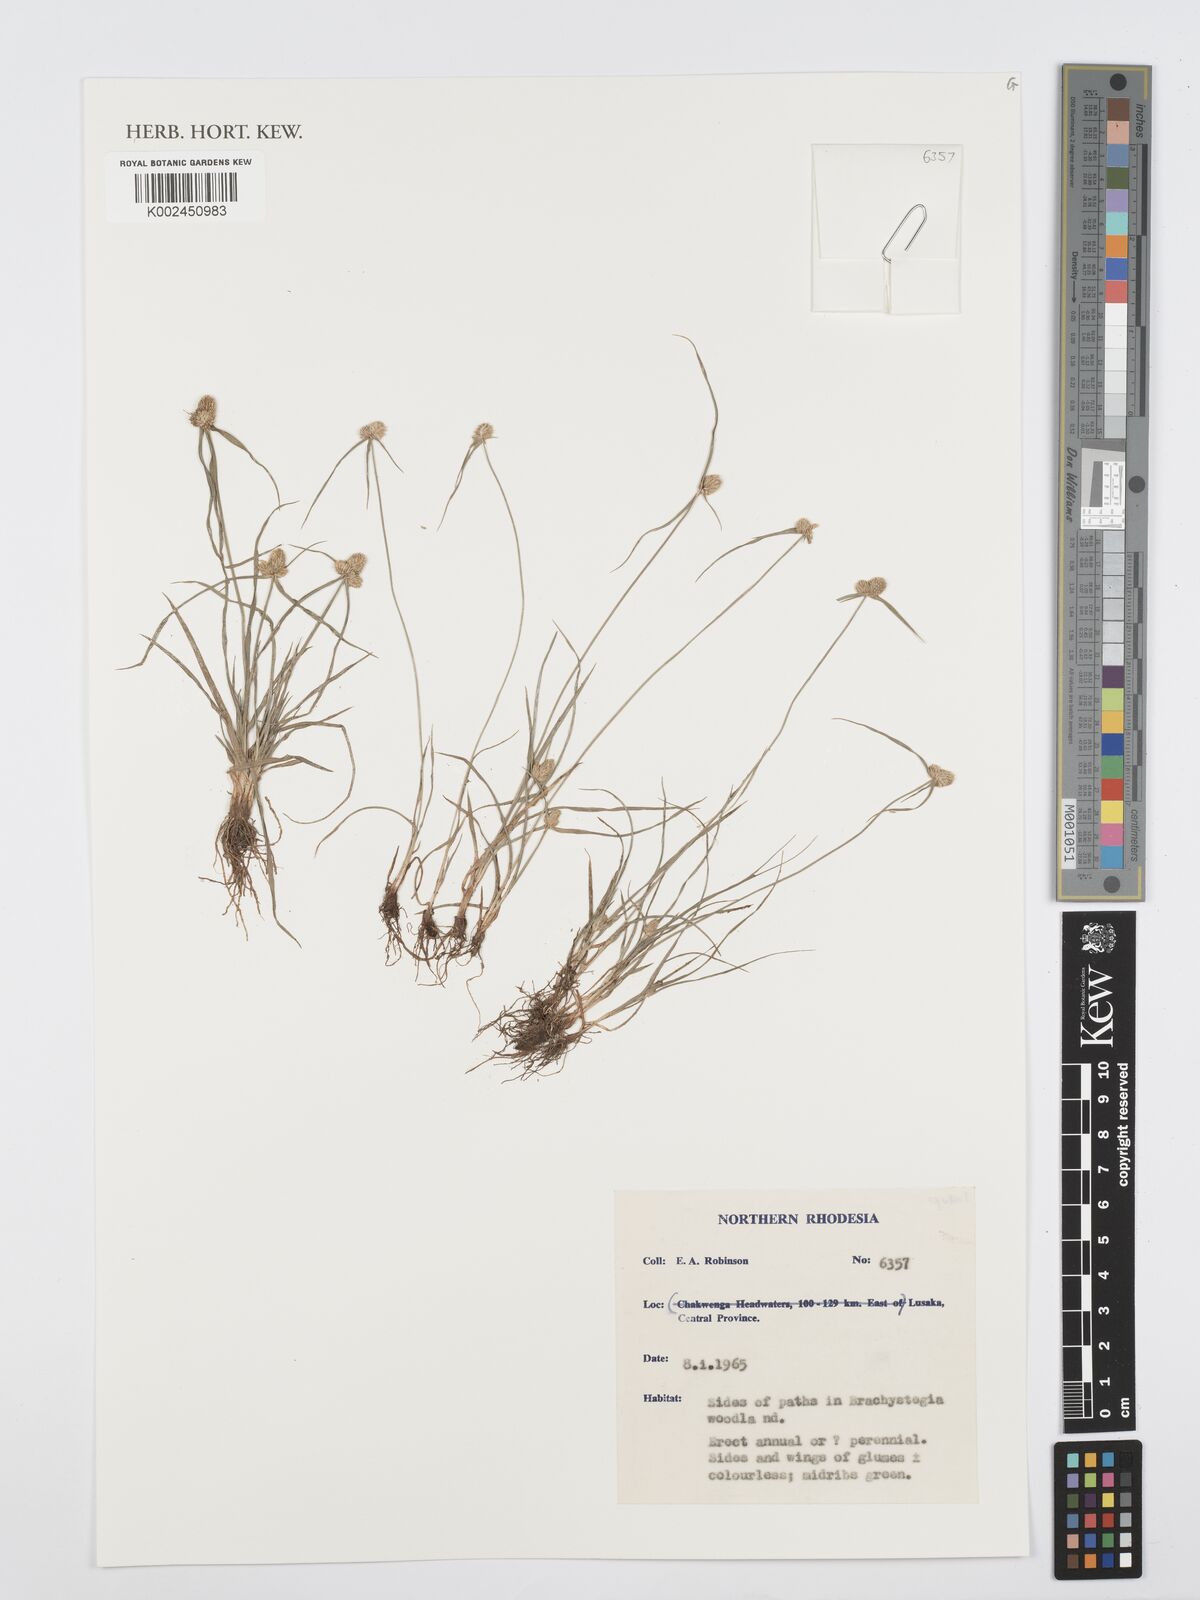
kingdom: Plantae
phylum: Tracheophyta
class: Liliopsida
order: Poales
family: Cyperaceae
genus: Cyperus
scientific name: Cyperus
